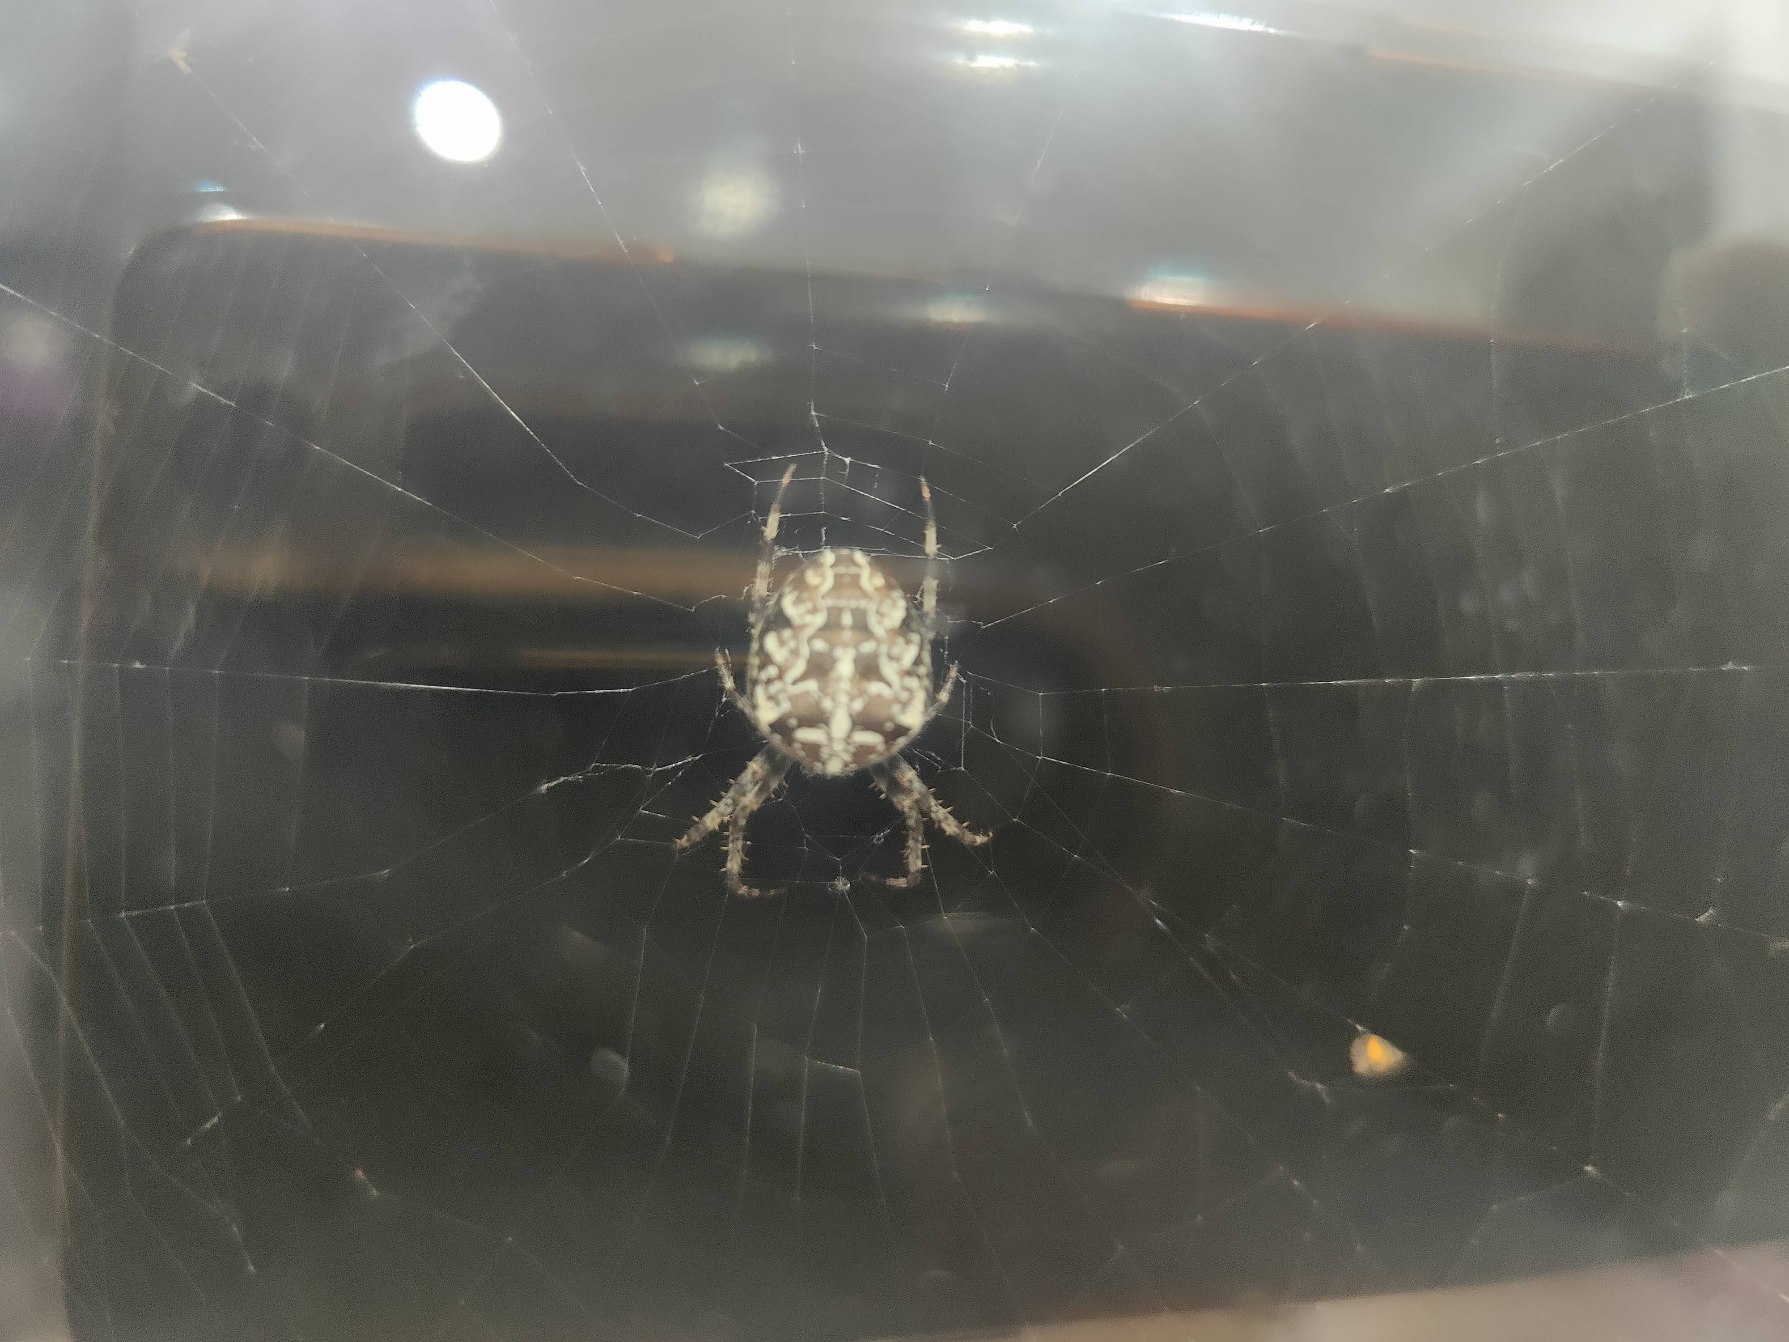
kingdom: Animalia
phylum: Arthropoda
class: Arachnida
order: Araneae
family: Araneidae
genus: Araneus
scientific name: Araneus diadematus
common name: Korsedderkop
